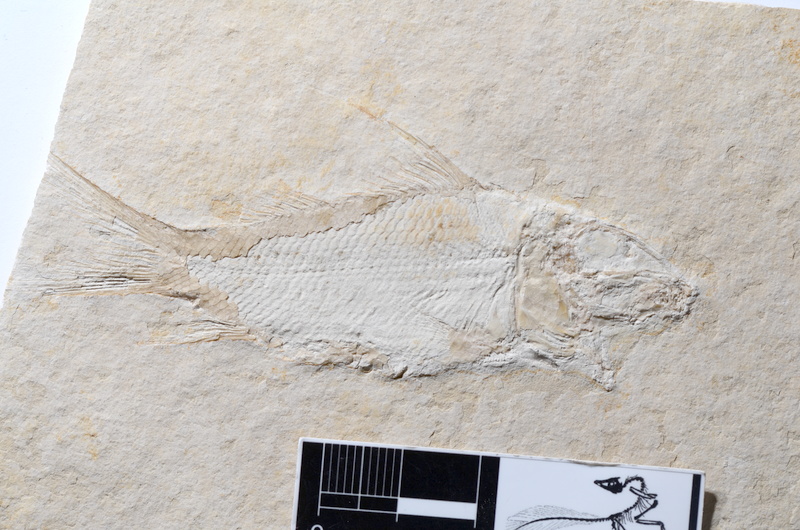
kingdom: Animalia
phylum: Chordata
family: Macrosemiidae
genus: Propterus
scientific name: Propterus microstomus
